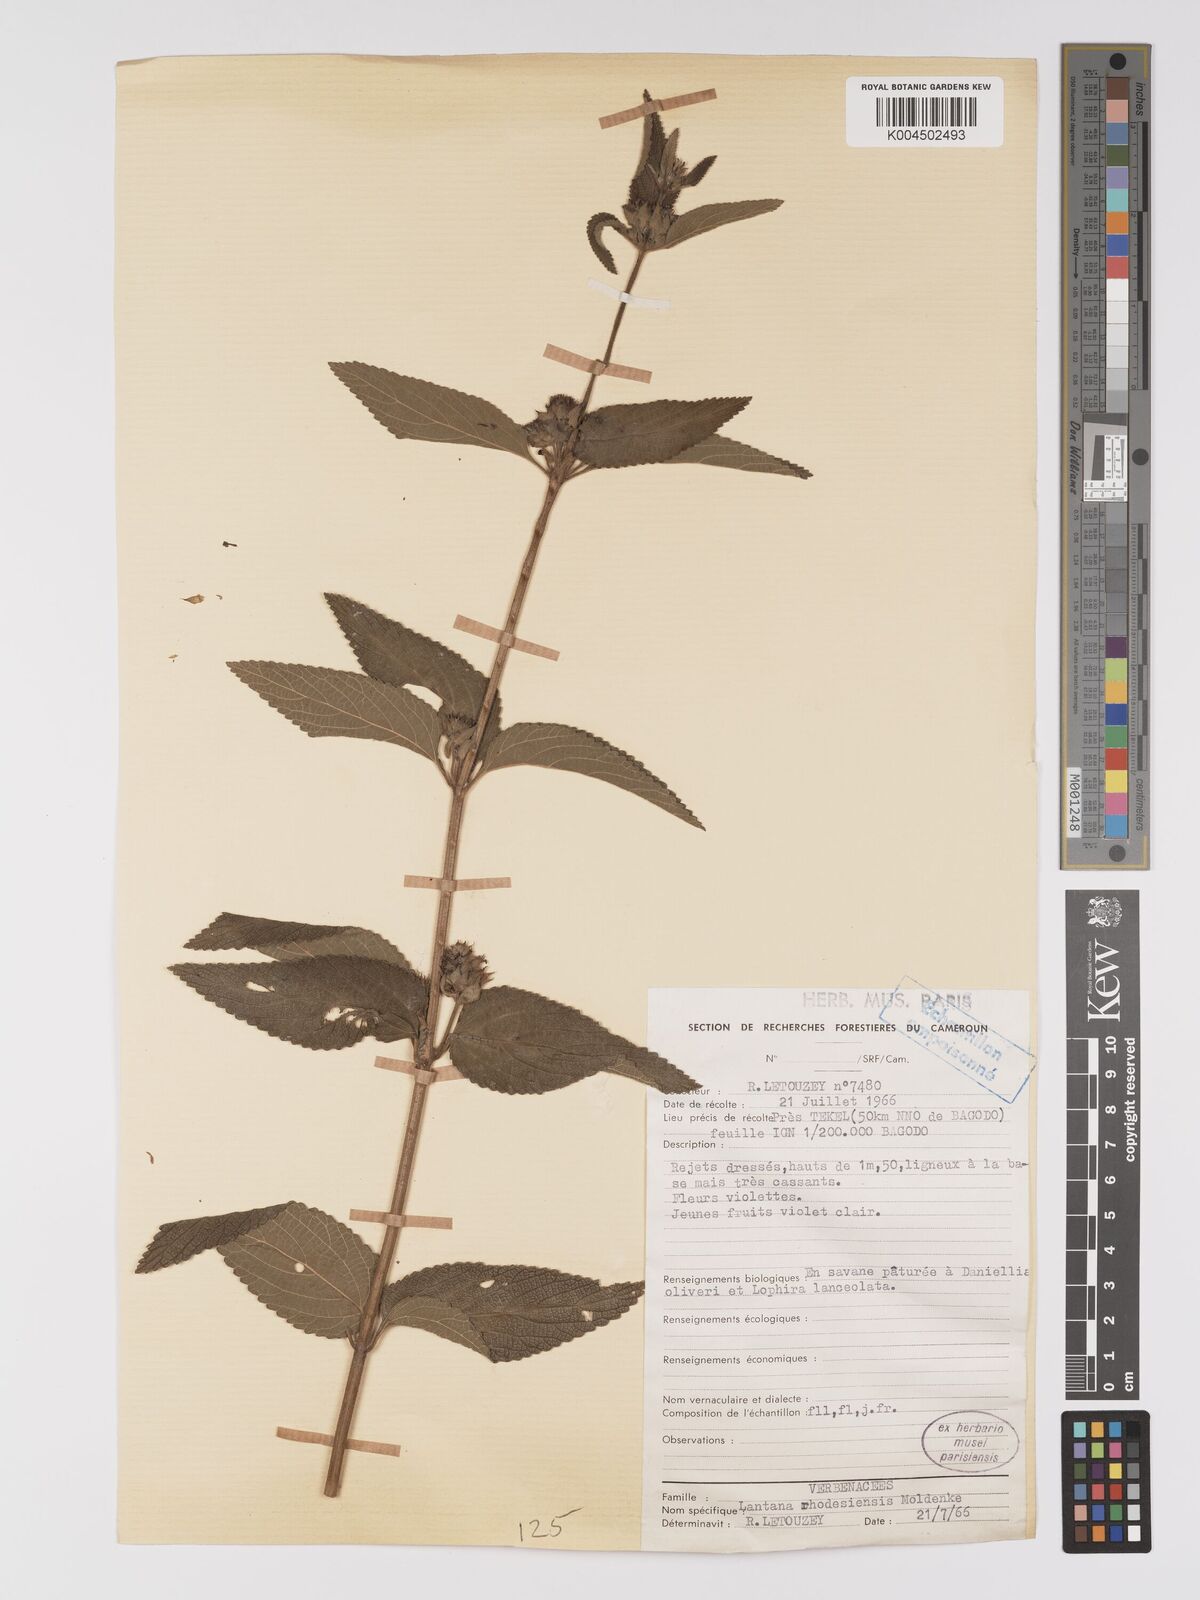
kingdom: Plantae
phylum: Tracheophyta
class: Magnoliopsida
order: Lamiales
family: Verbenaceae
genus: Lantana
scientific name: Lantana ukambensis
